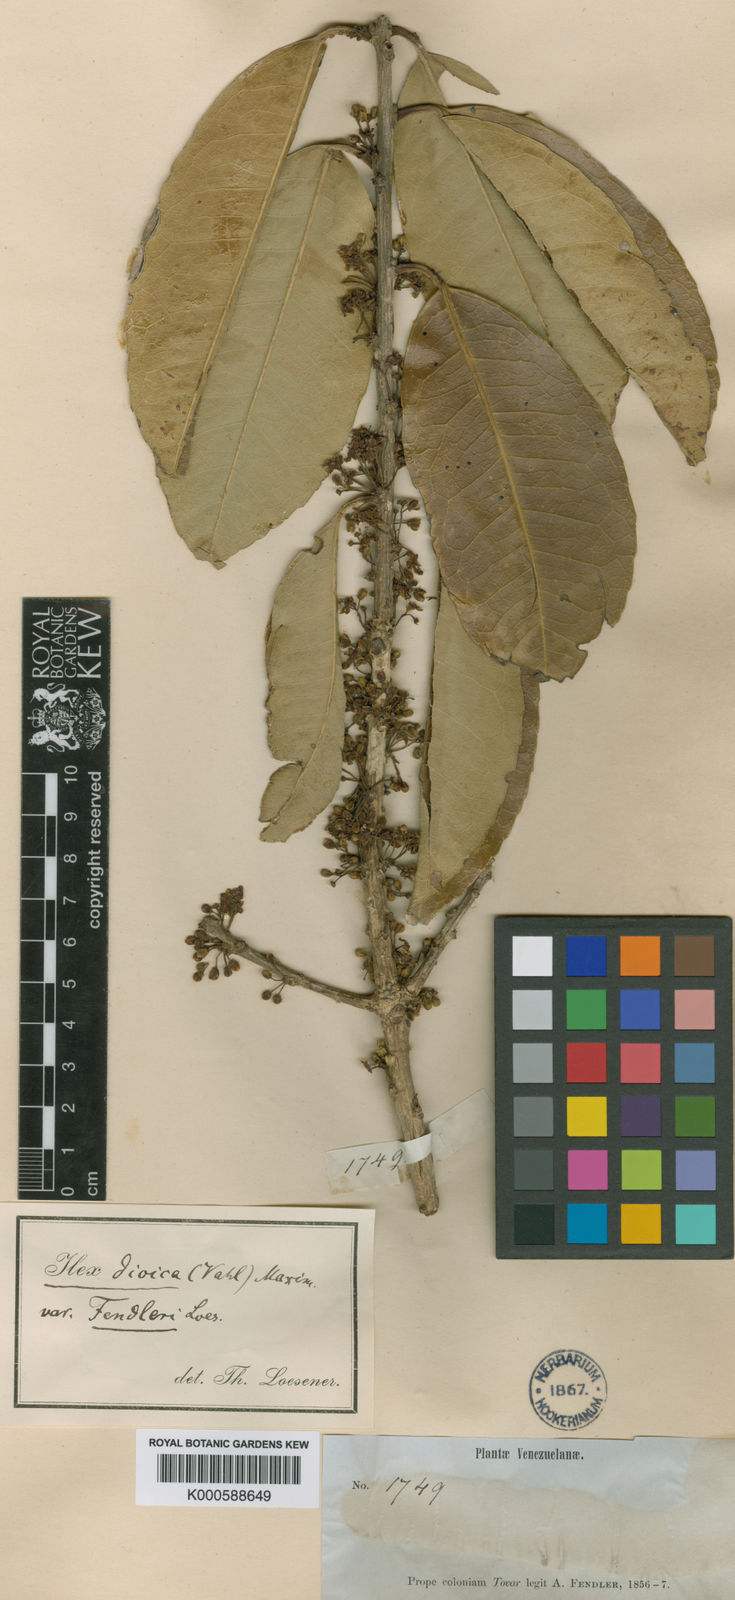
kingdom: Plantae
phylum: Tracheophyta
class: Magnoliopsida
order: Aquifoliales
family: Aquifoliaceae
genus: Ilex
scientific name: Ilex dioica
